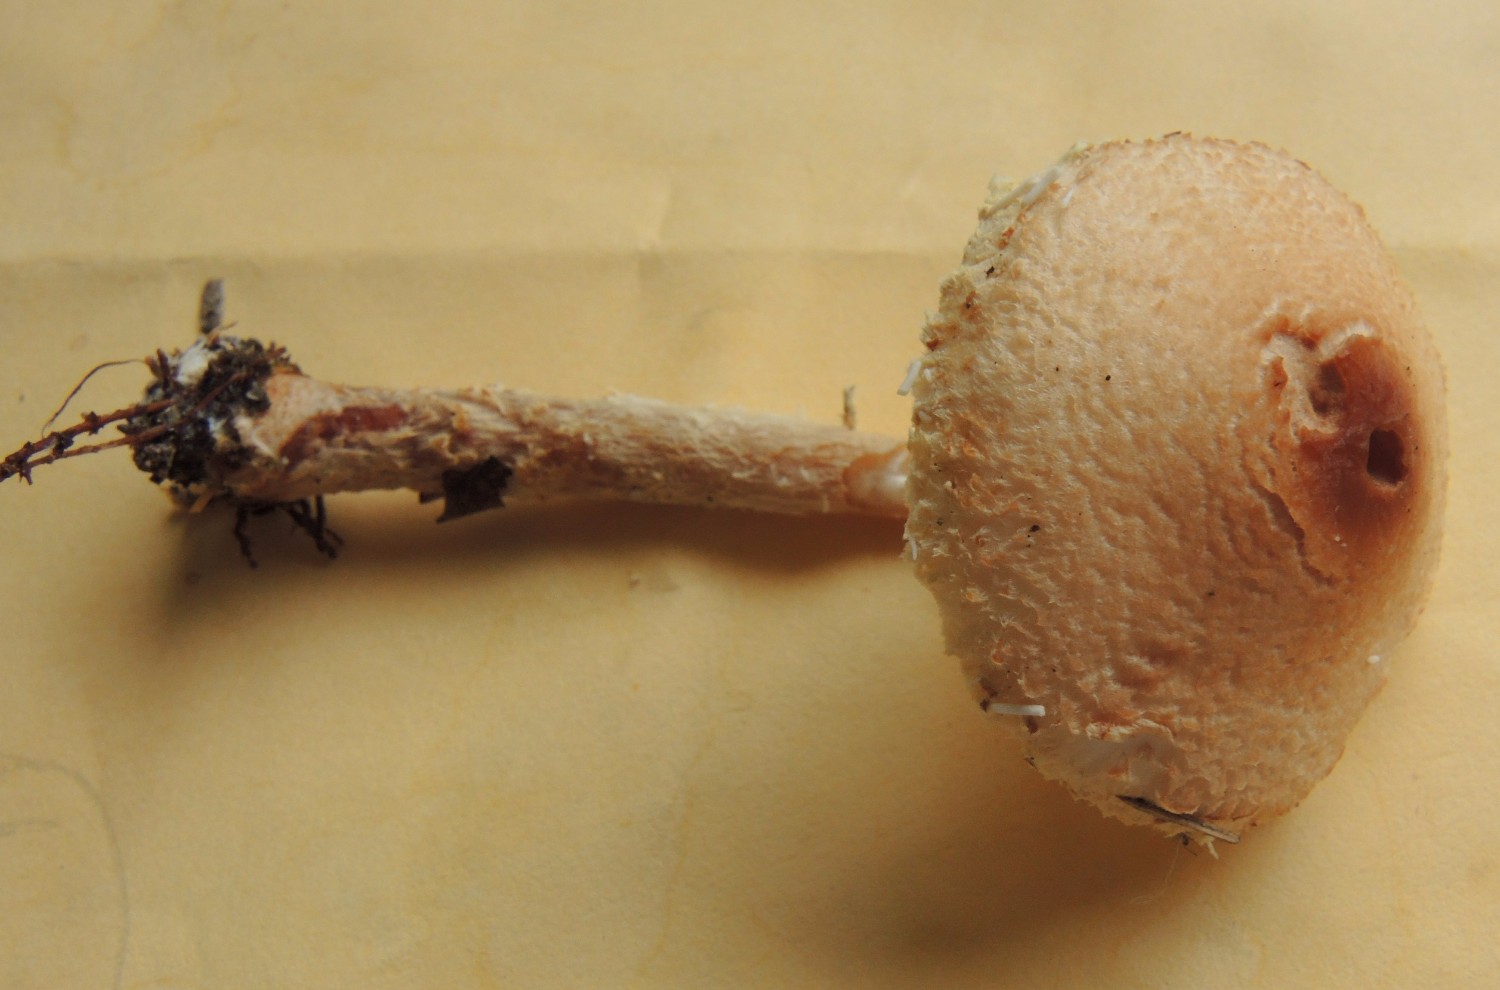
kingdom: Fungi
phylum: Basidiomycota
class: Agaricomycetes
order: Agaricales
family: Agaricaceae
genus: Lepiota
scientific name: Lepiota magnispora
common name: gulfnugget parasolhat
